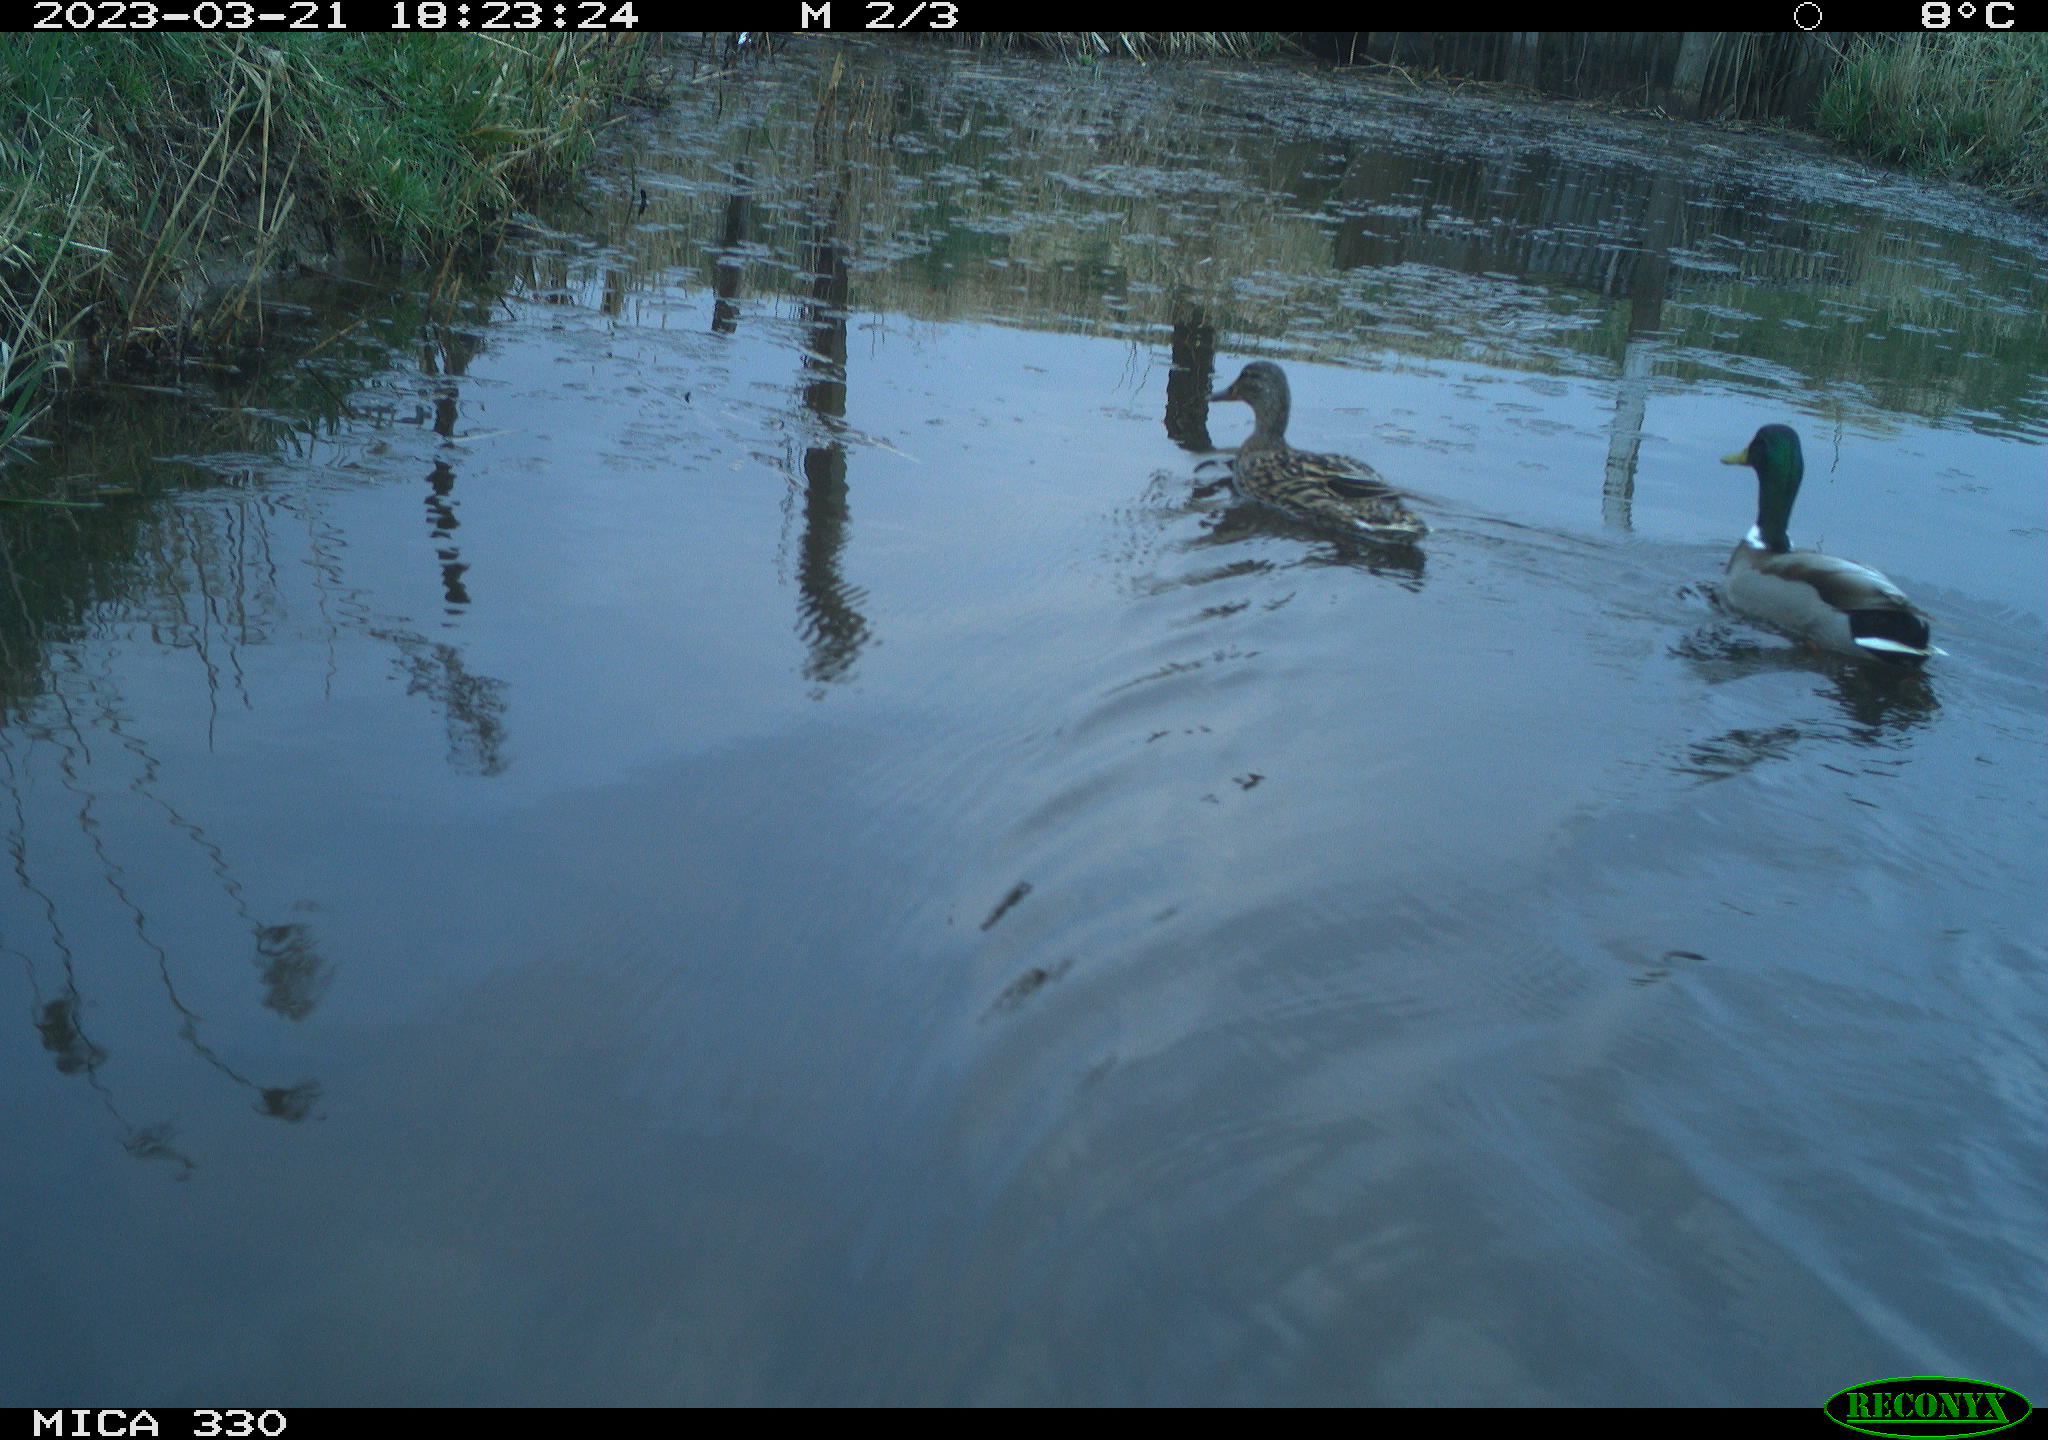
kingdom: Animalia
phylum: Chordata
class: Aves
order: Anseriformes
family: Anatidae
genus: Anas
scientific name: Anas
